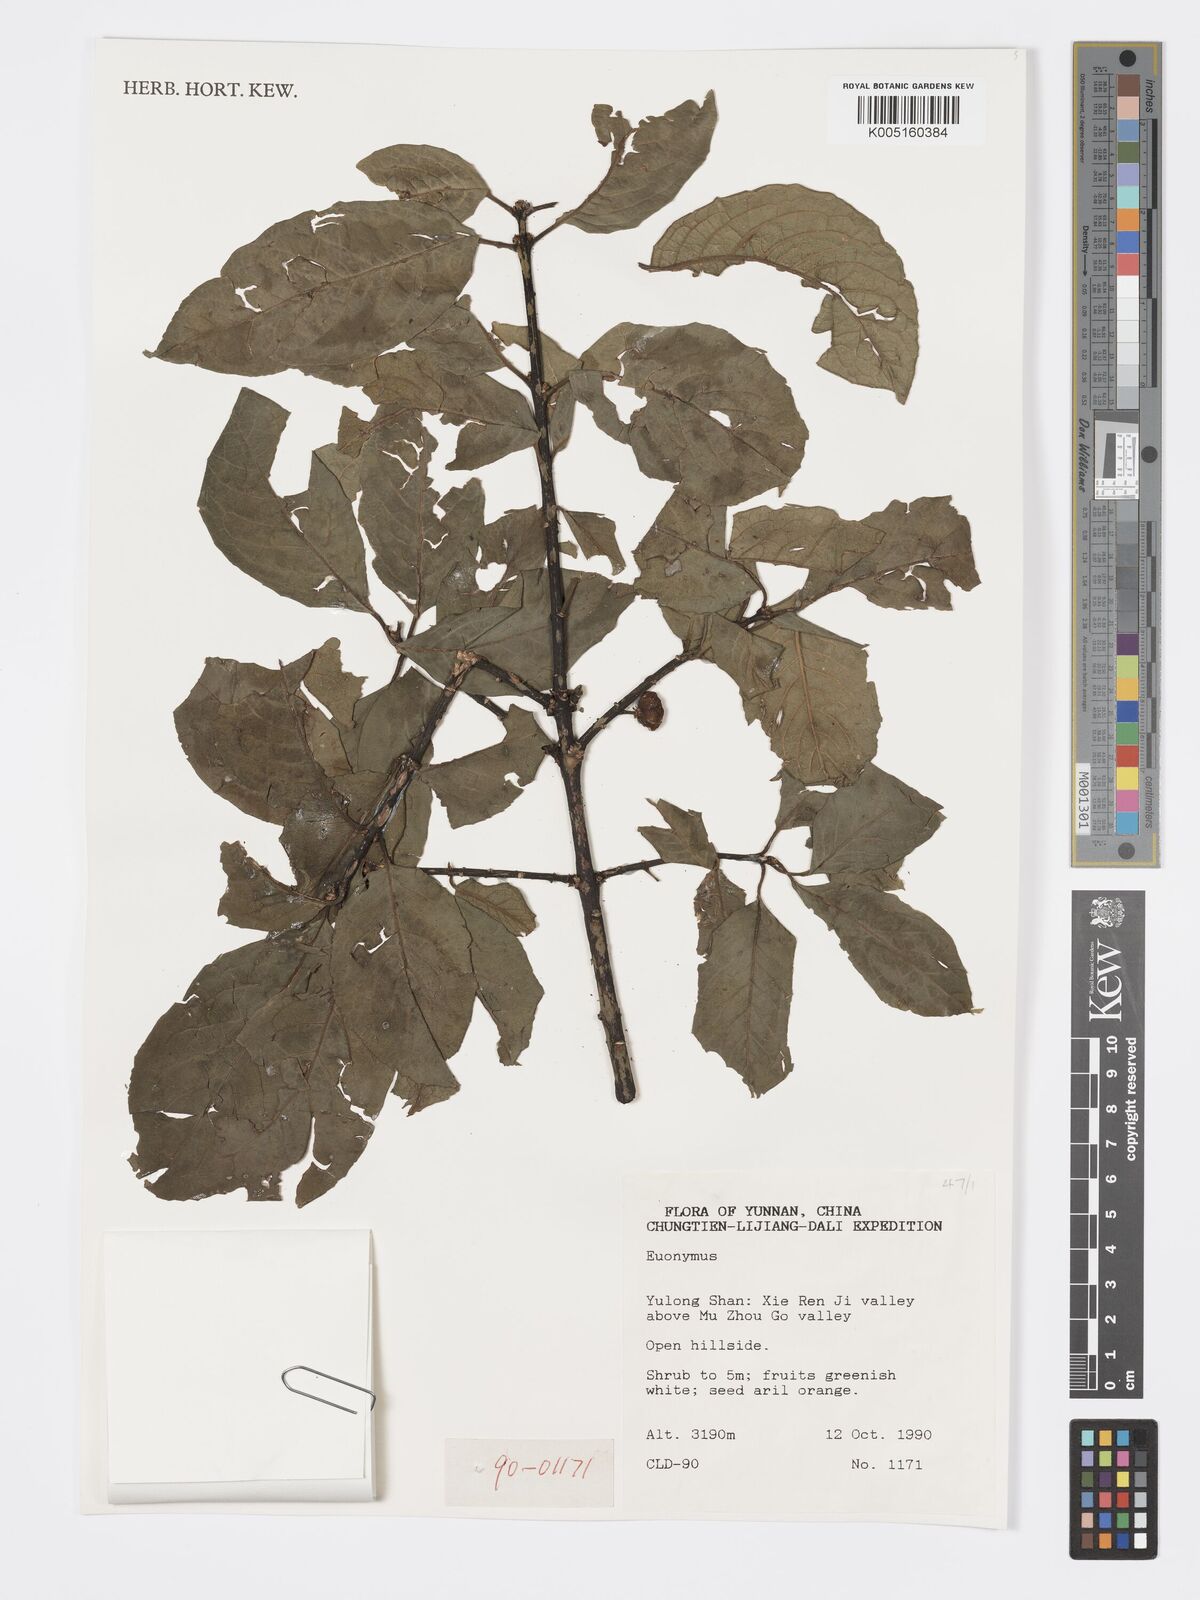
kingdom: Plantae
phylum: Tracheophyta
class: Magnoliopsida
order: Celastrales
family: Celastraceae
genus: Euonymus
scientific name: Euonymus
